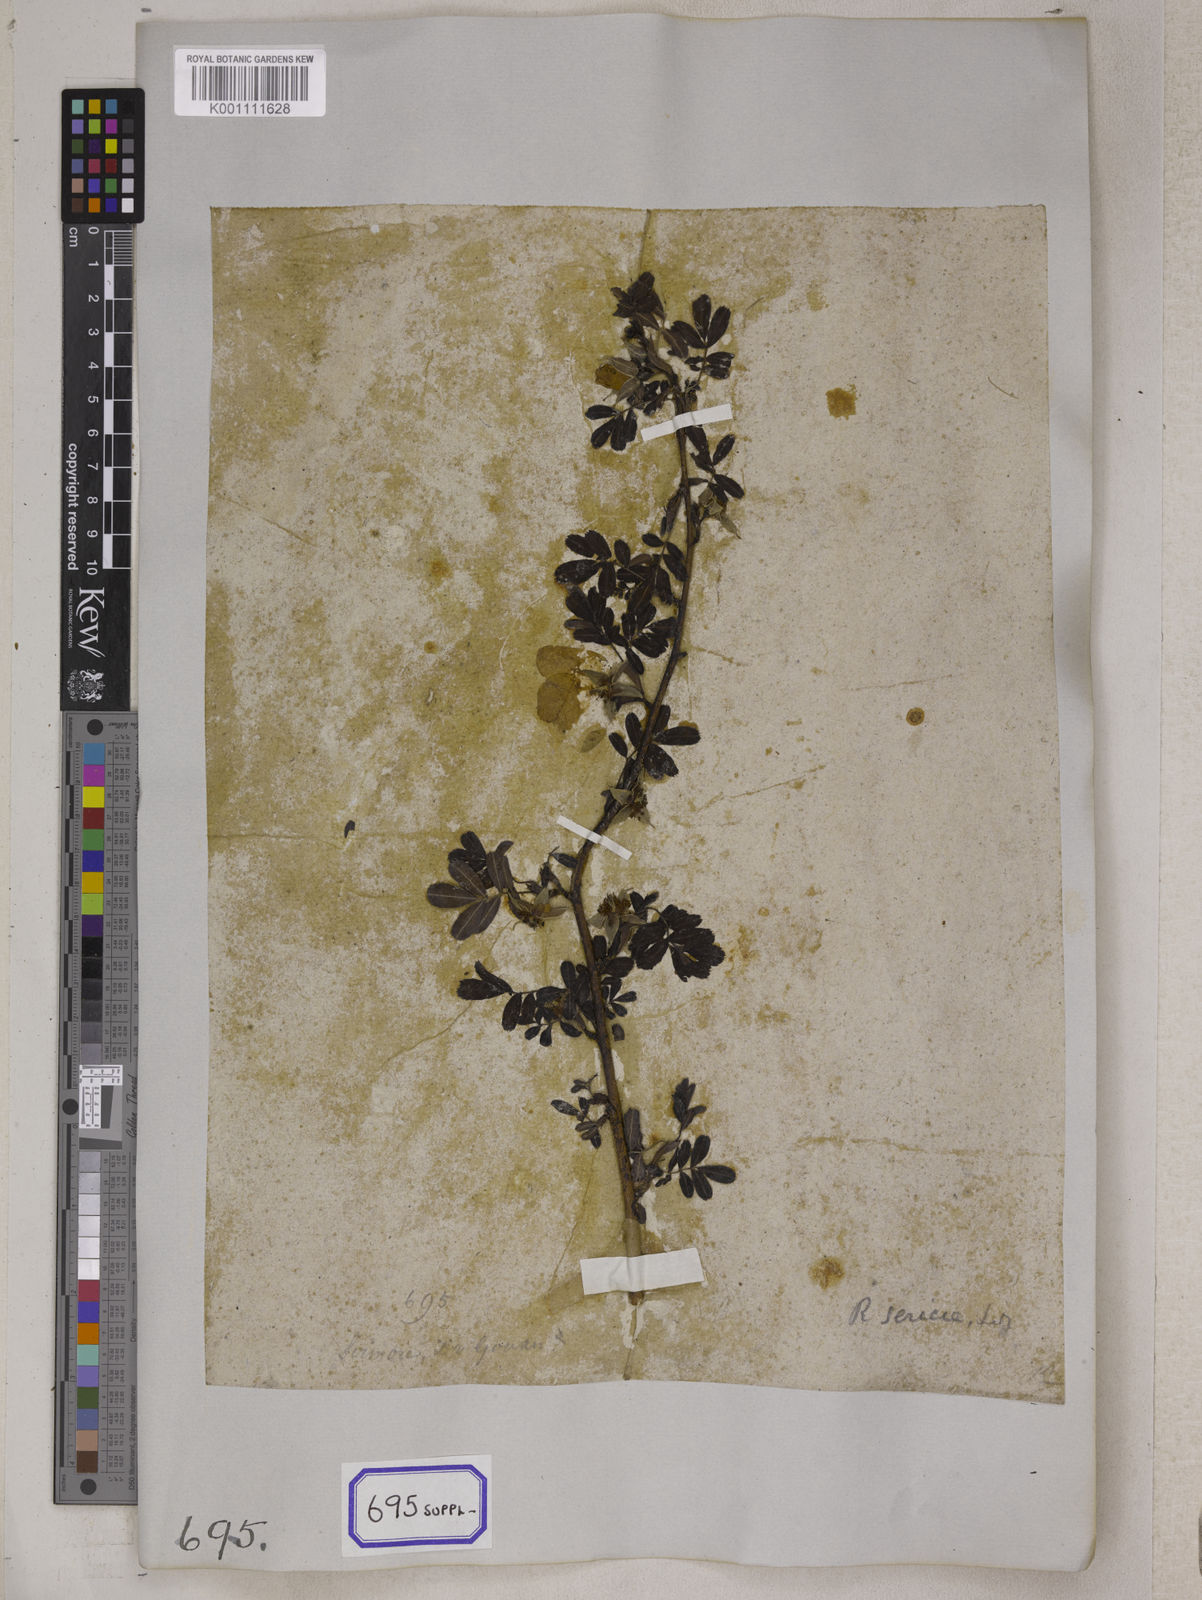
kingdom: Plantae
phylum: Tracheophyta
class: Magnoliopsida
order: Rosales
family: Rosaceae
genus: Rosa
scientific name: Rosa sericea
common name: Silky rose
